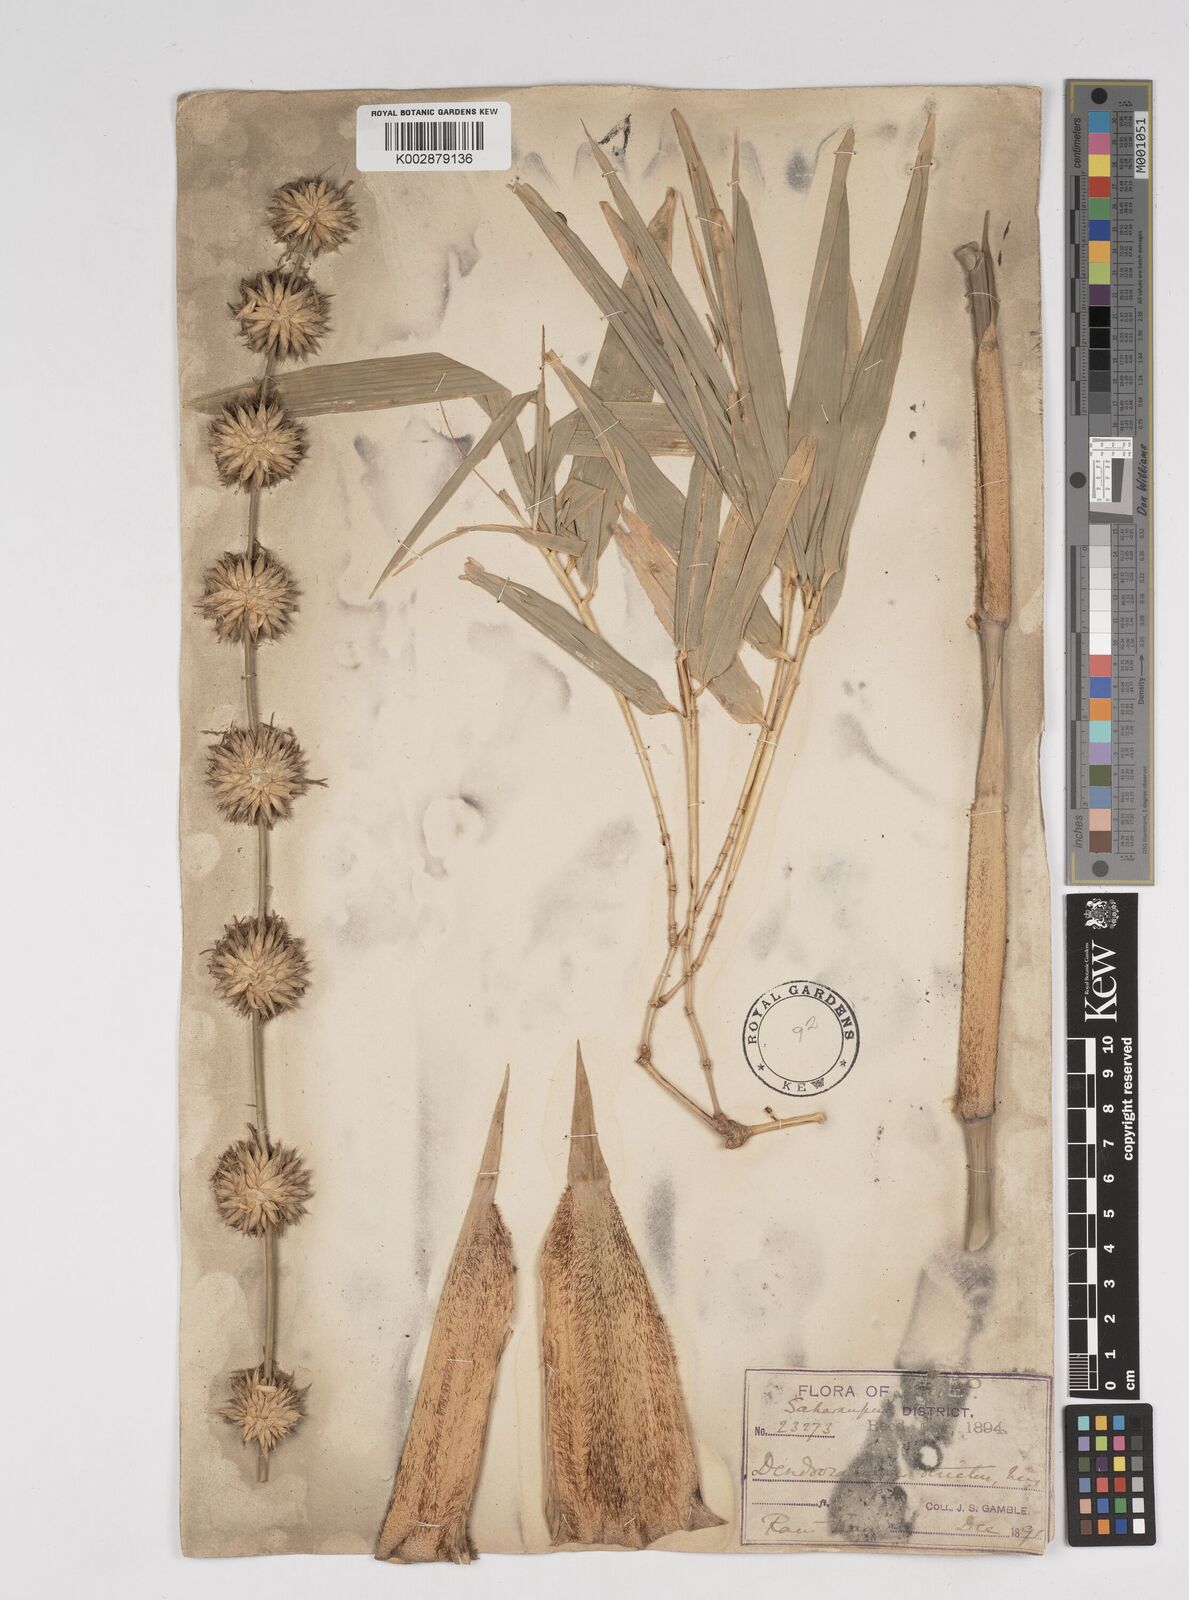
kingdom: Plantae
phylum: Tracheophyta
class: Liliopsida
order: Poales
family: Poaceae
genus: Dendrocalamus
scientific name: Dendrocalamus strictus
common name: Male bamboo
